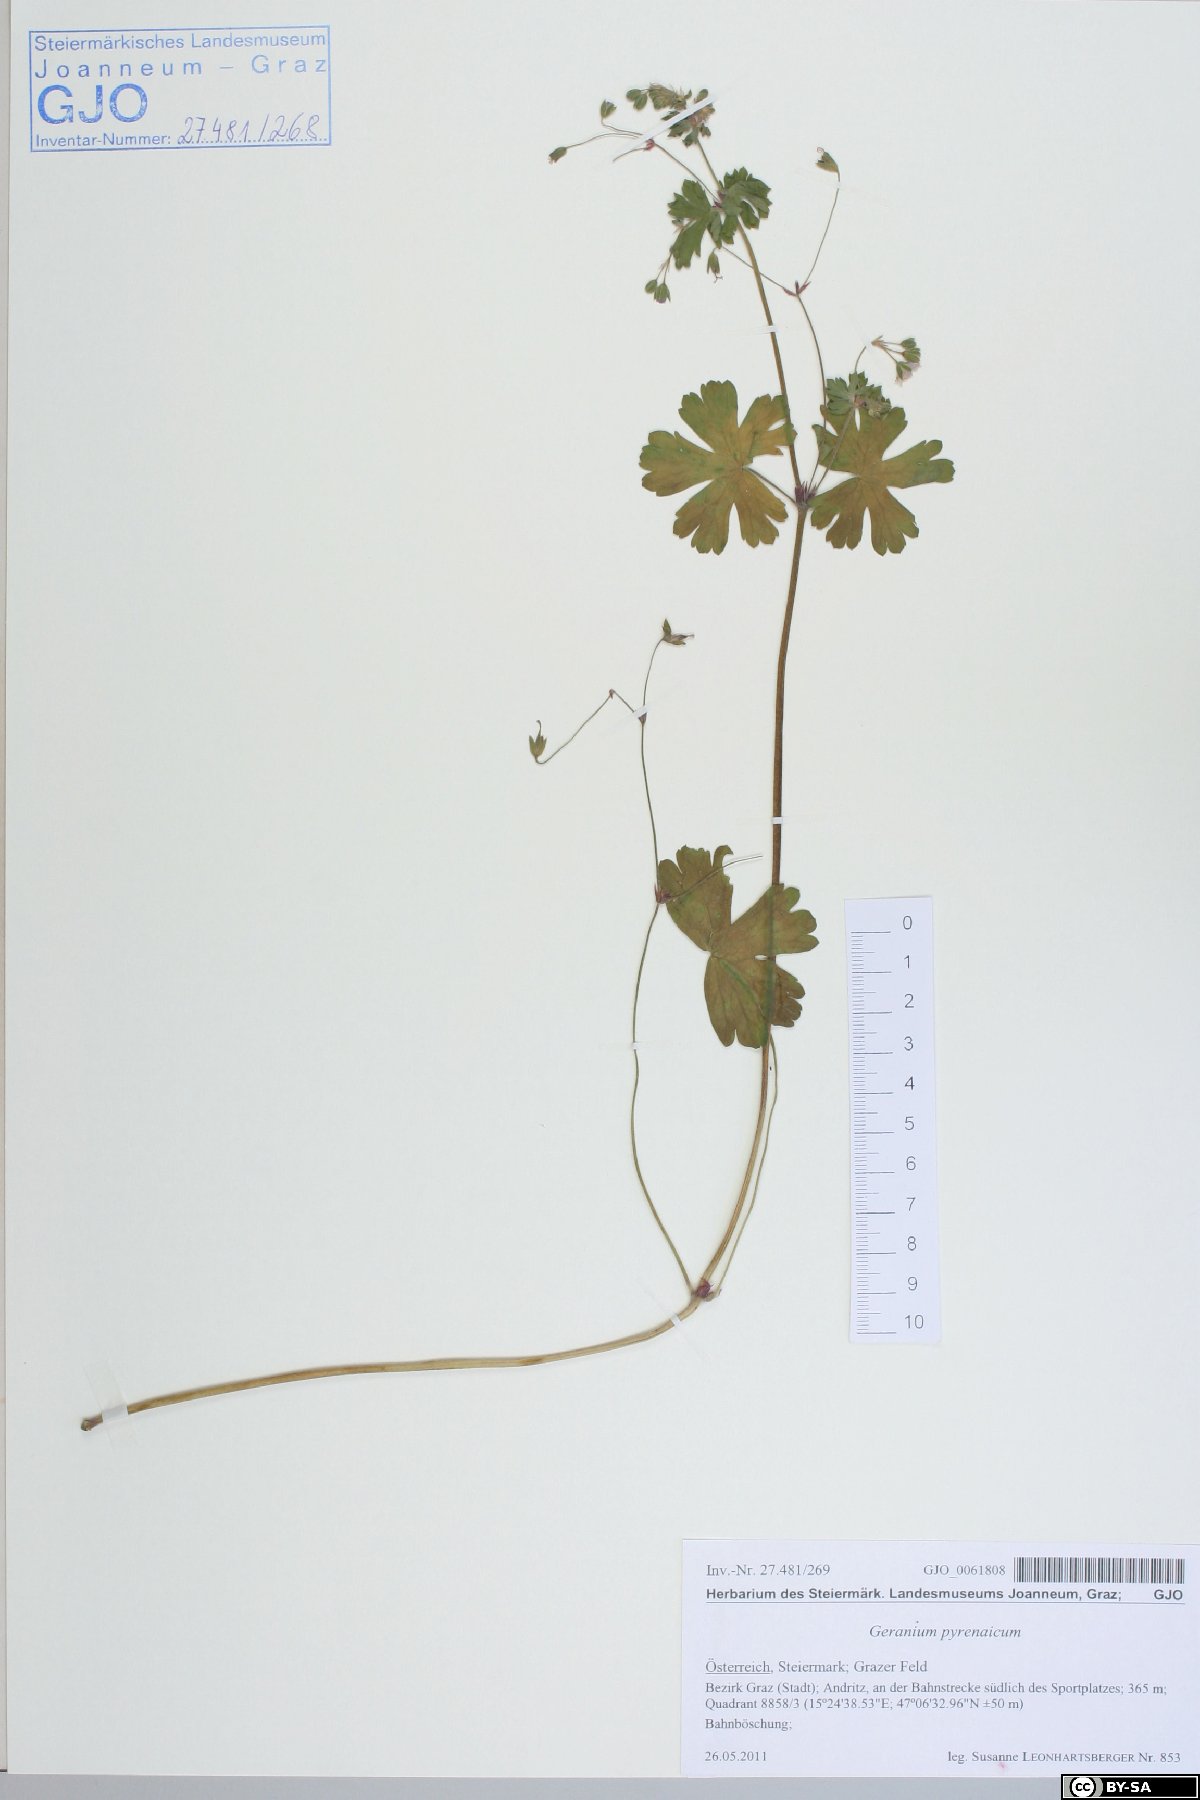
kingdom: Plantae
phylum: Tracheophyta
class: Magnoliopsida
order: Geraniales
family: Geraniaceae
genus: Geranium
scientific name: Geranium pyrenaicum
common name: Hedgerow crane's-bill
